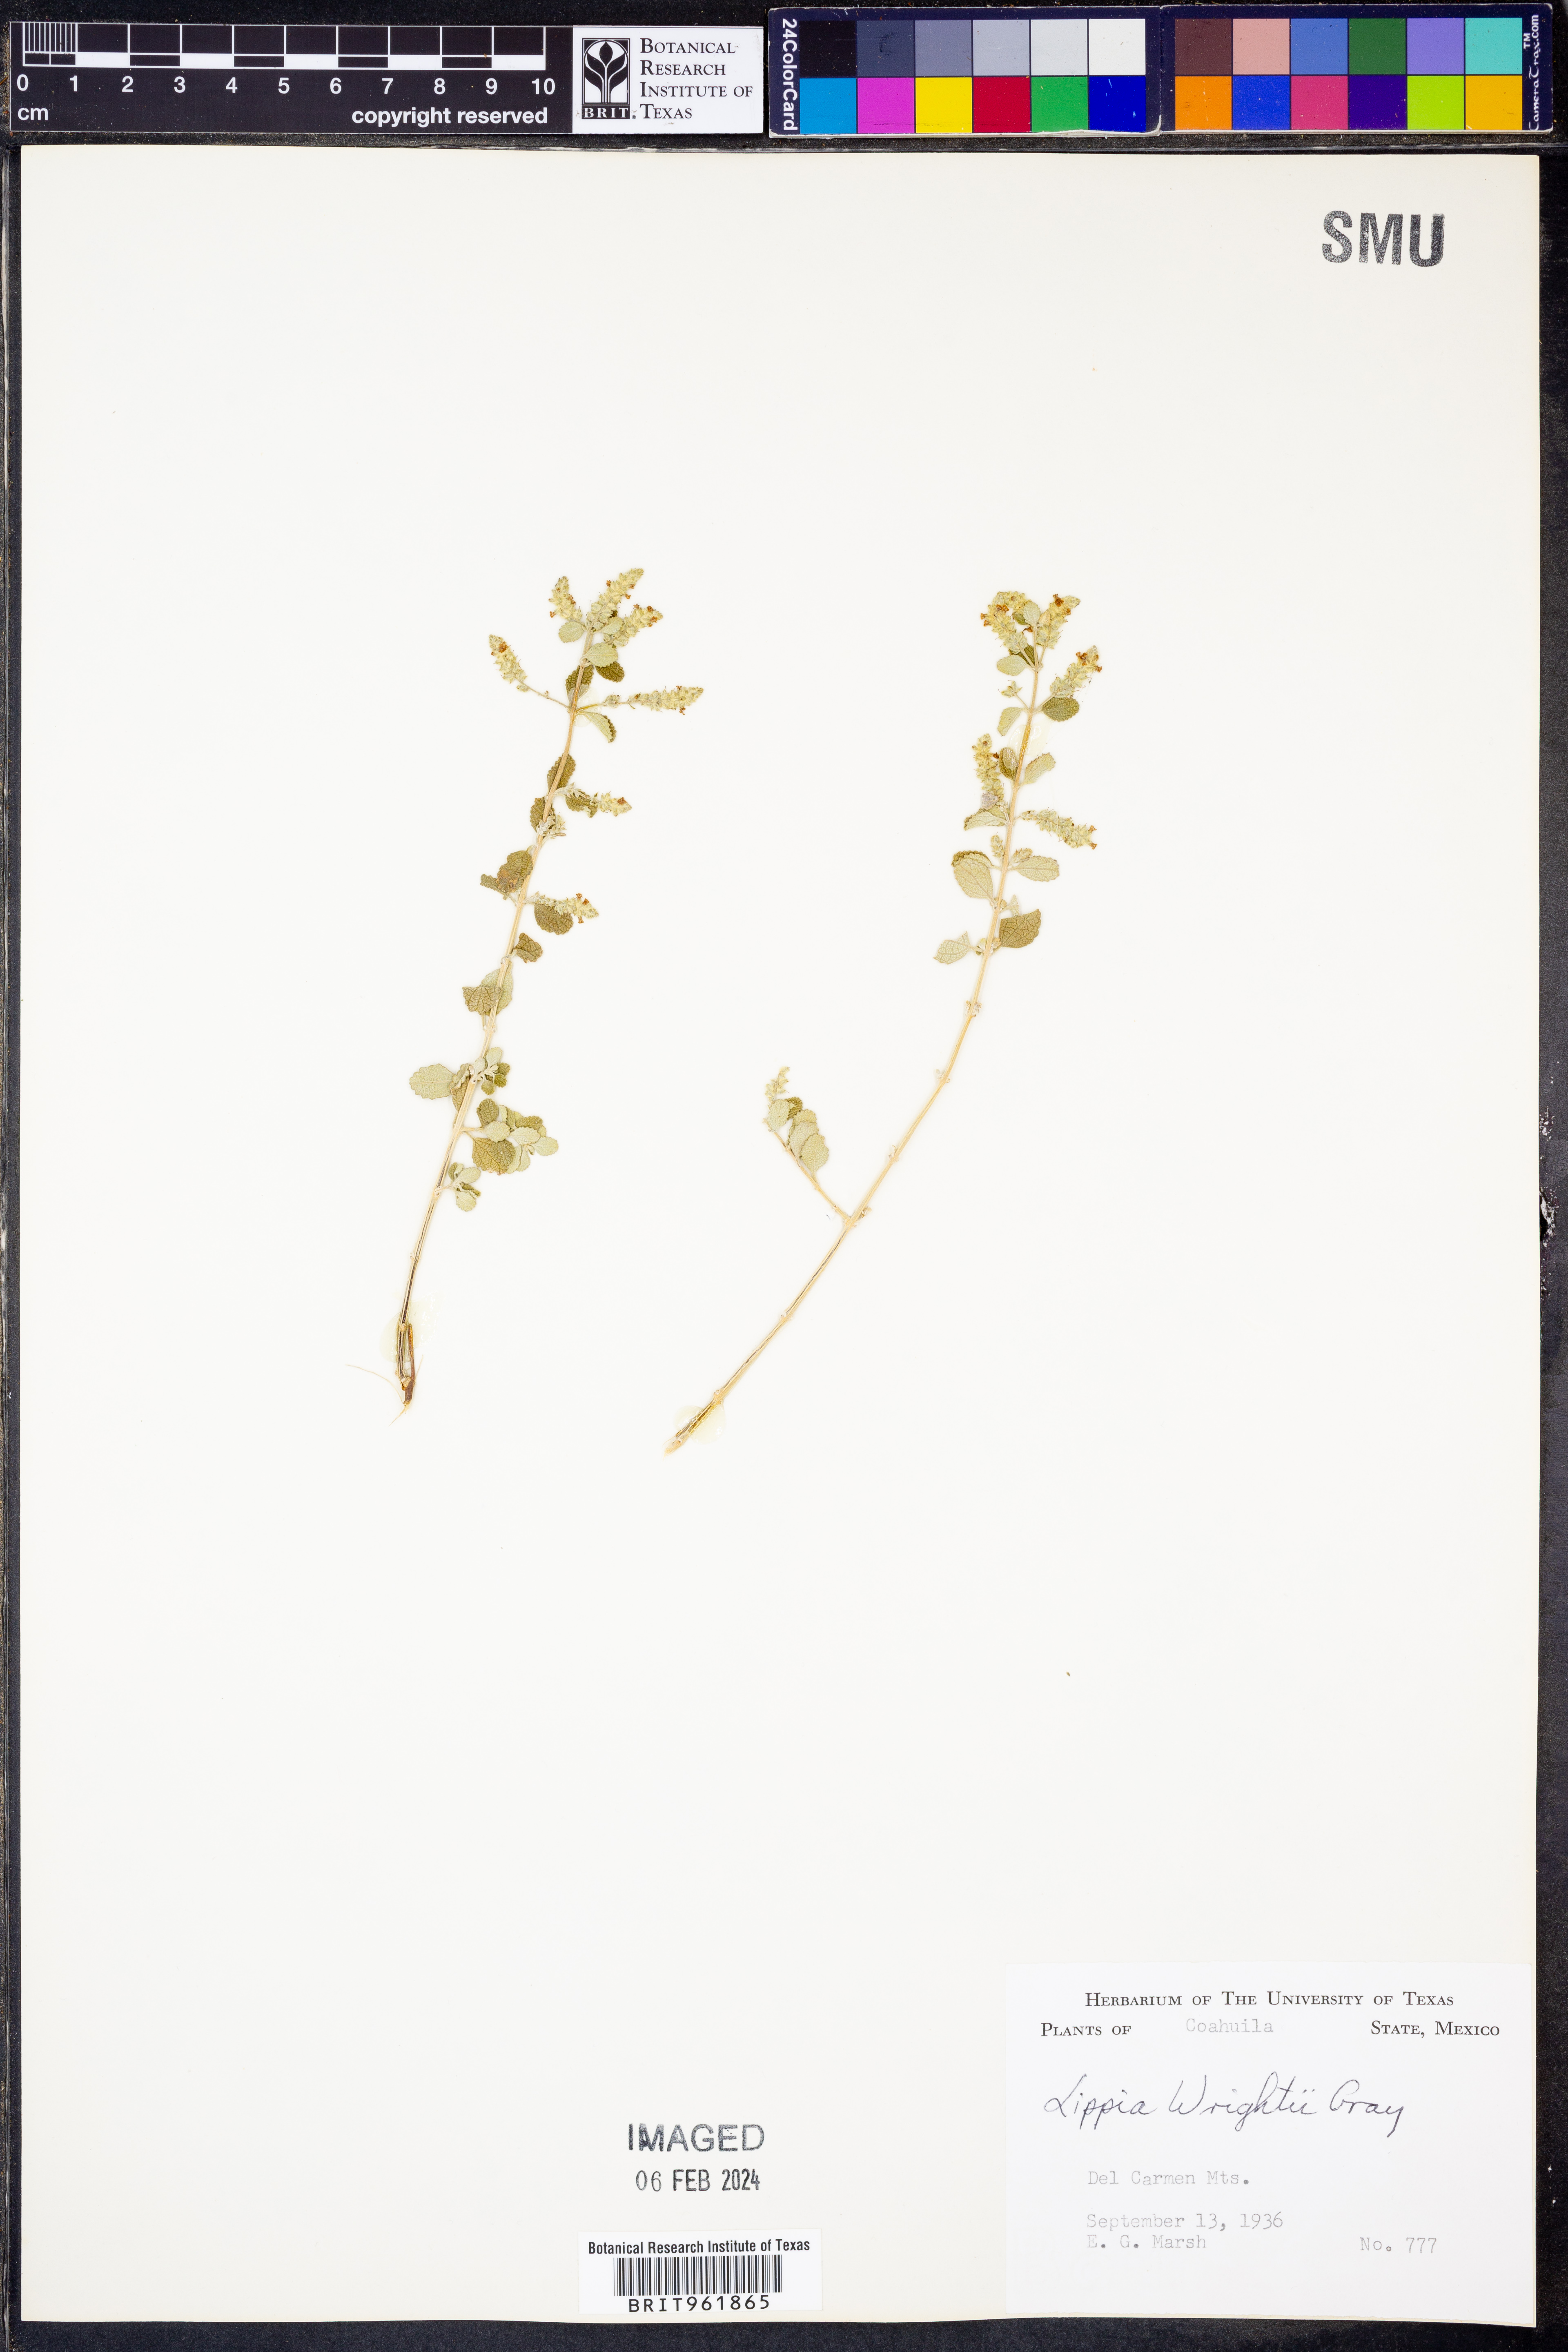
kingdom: Plantae
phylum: Tracheophyta
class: Magnoliopsida
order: Lamiales
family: Verbenaceae
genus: Aloysia
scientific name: Aloysia wrightii
